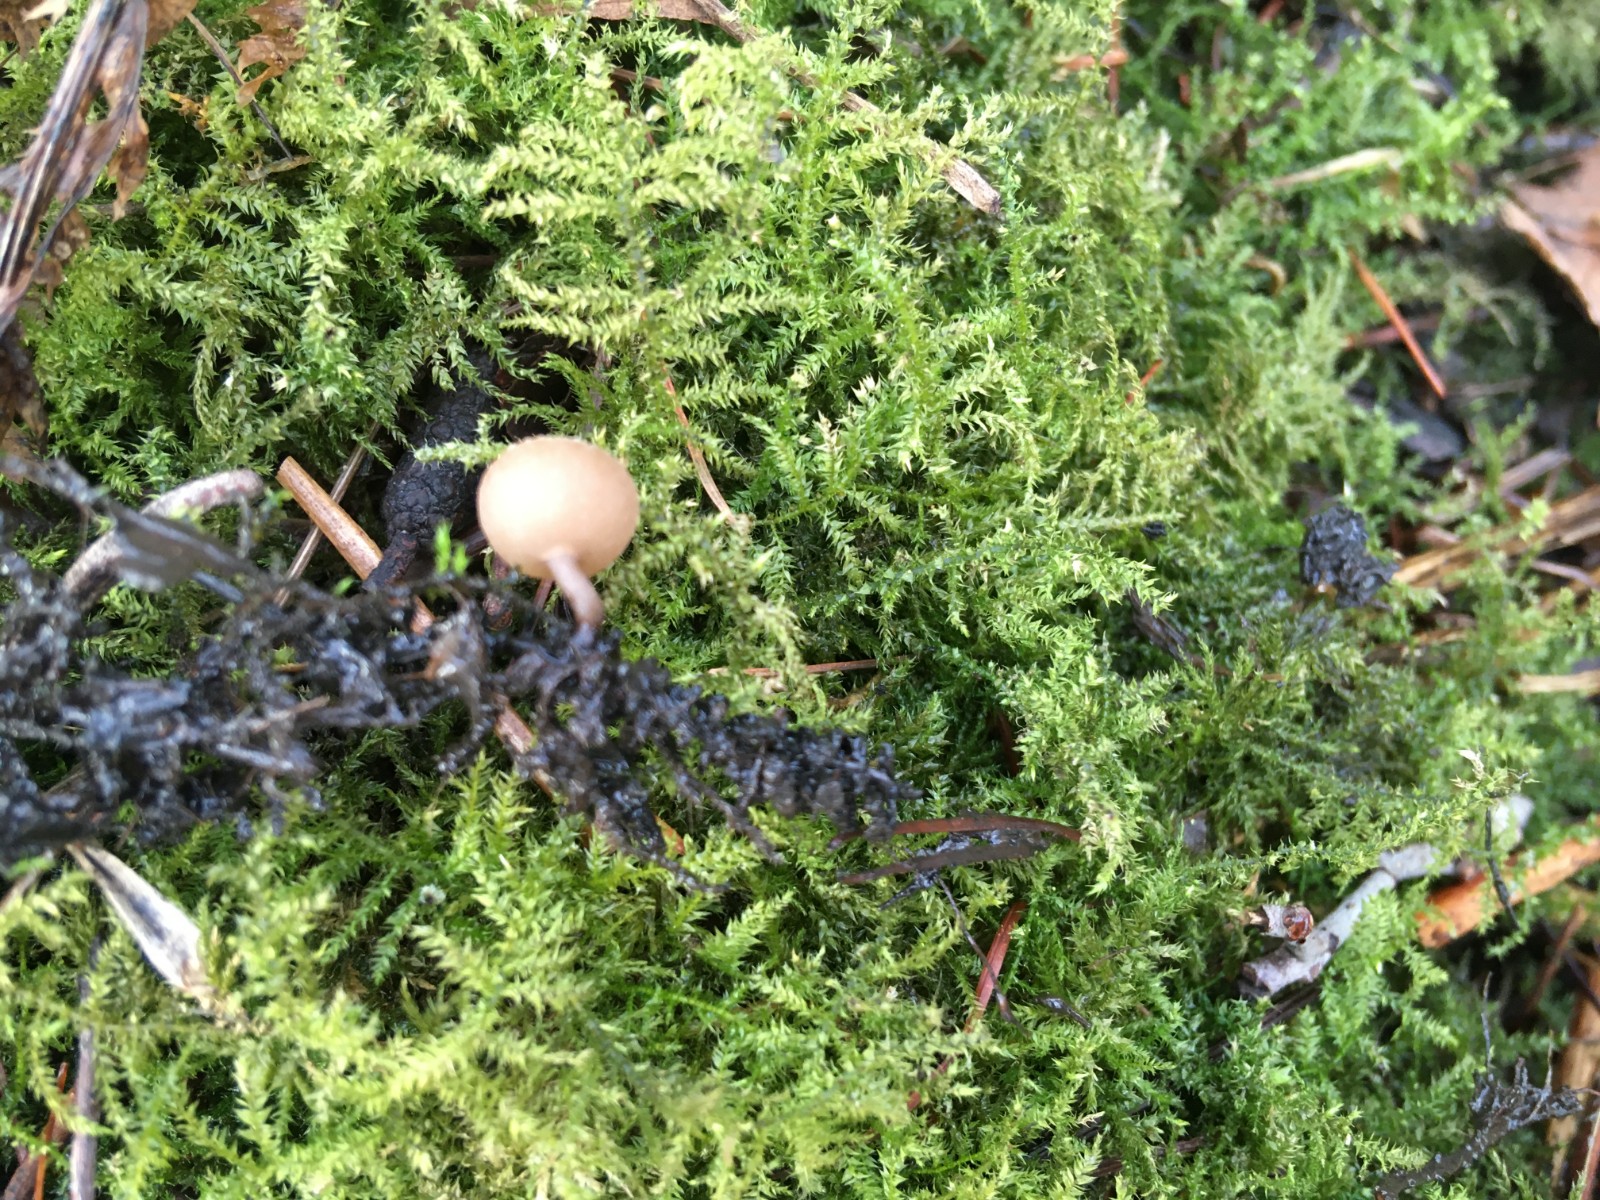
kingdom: Fungi
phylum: Ascomycota
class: Leotiomycetes
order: Helotiales
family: Sclerotiniaceae
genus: Ciboria
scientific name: Ciboria amentacea
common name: ellerakle-knoldskive
